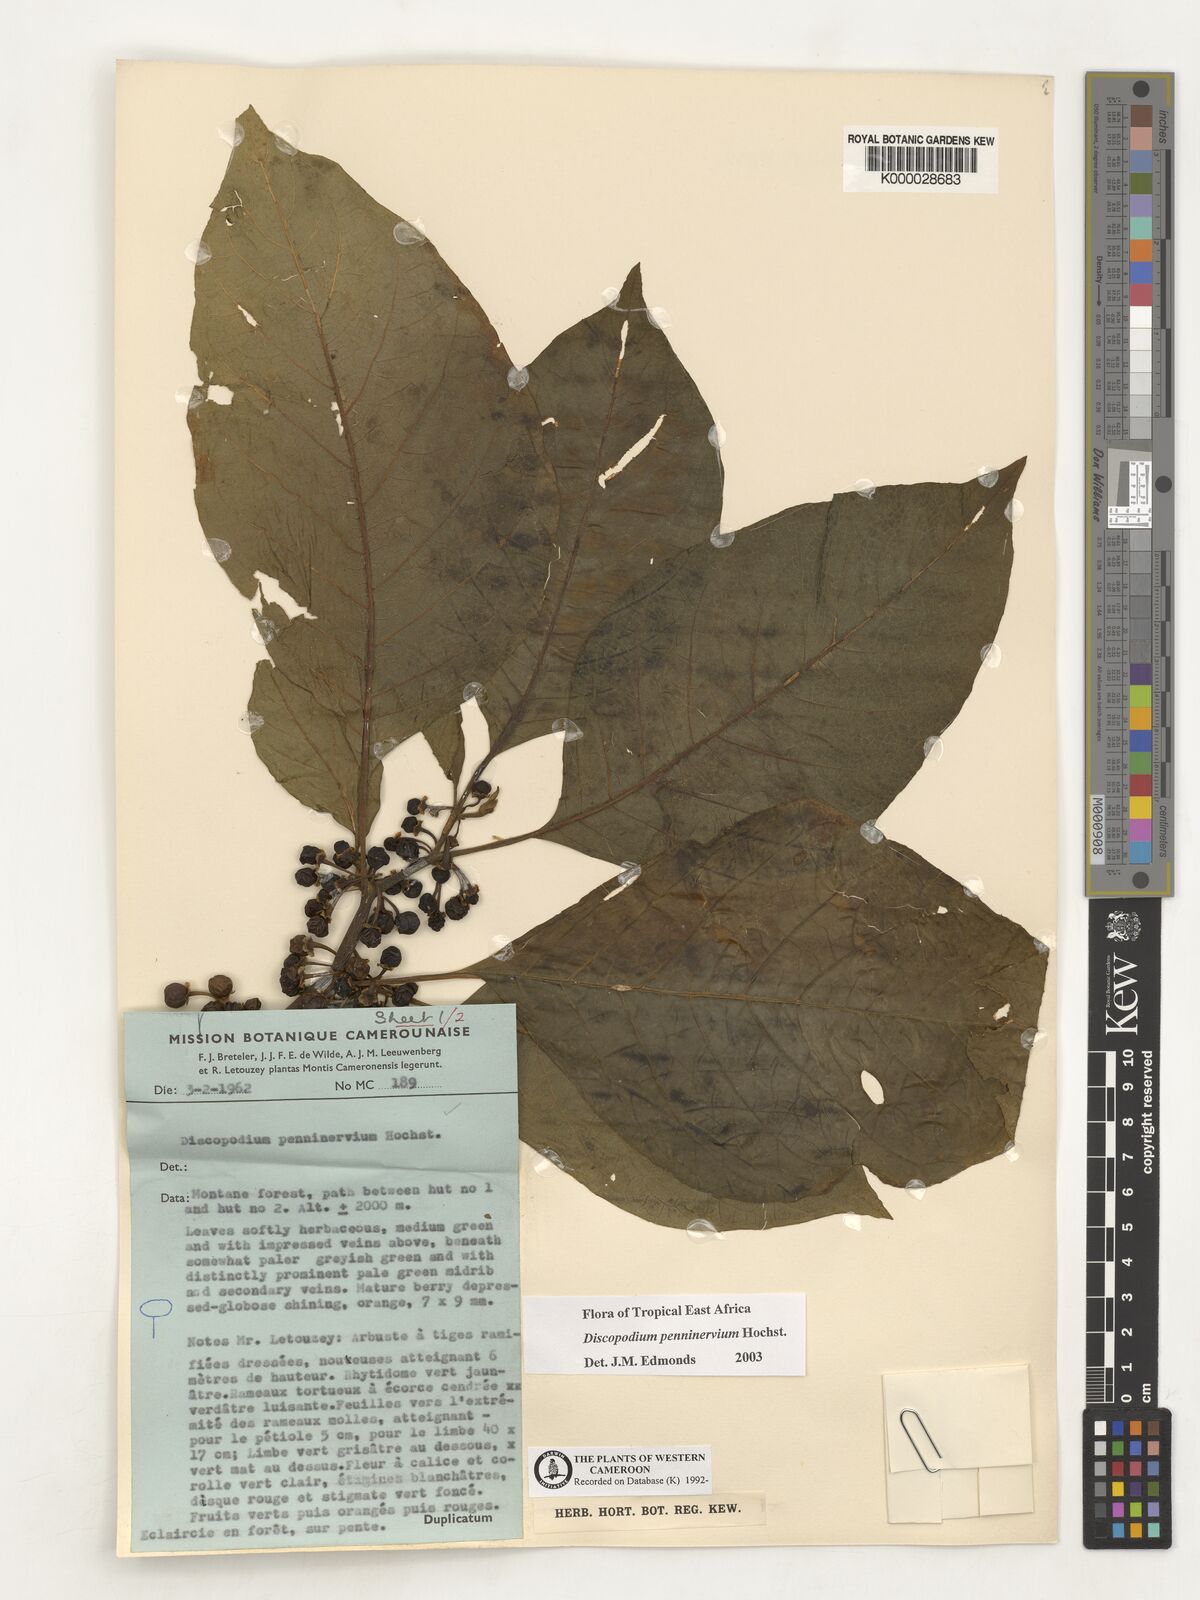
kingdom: Plantae
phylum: Tracheophyta
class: Magnoliopsida
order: Solanales
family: Solanaceae
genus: Discopodium
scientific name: Discopodium penninervium
